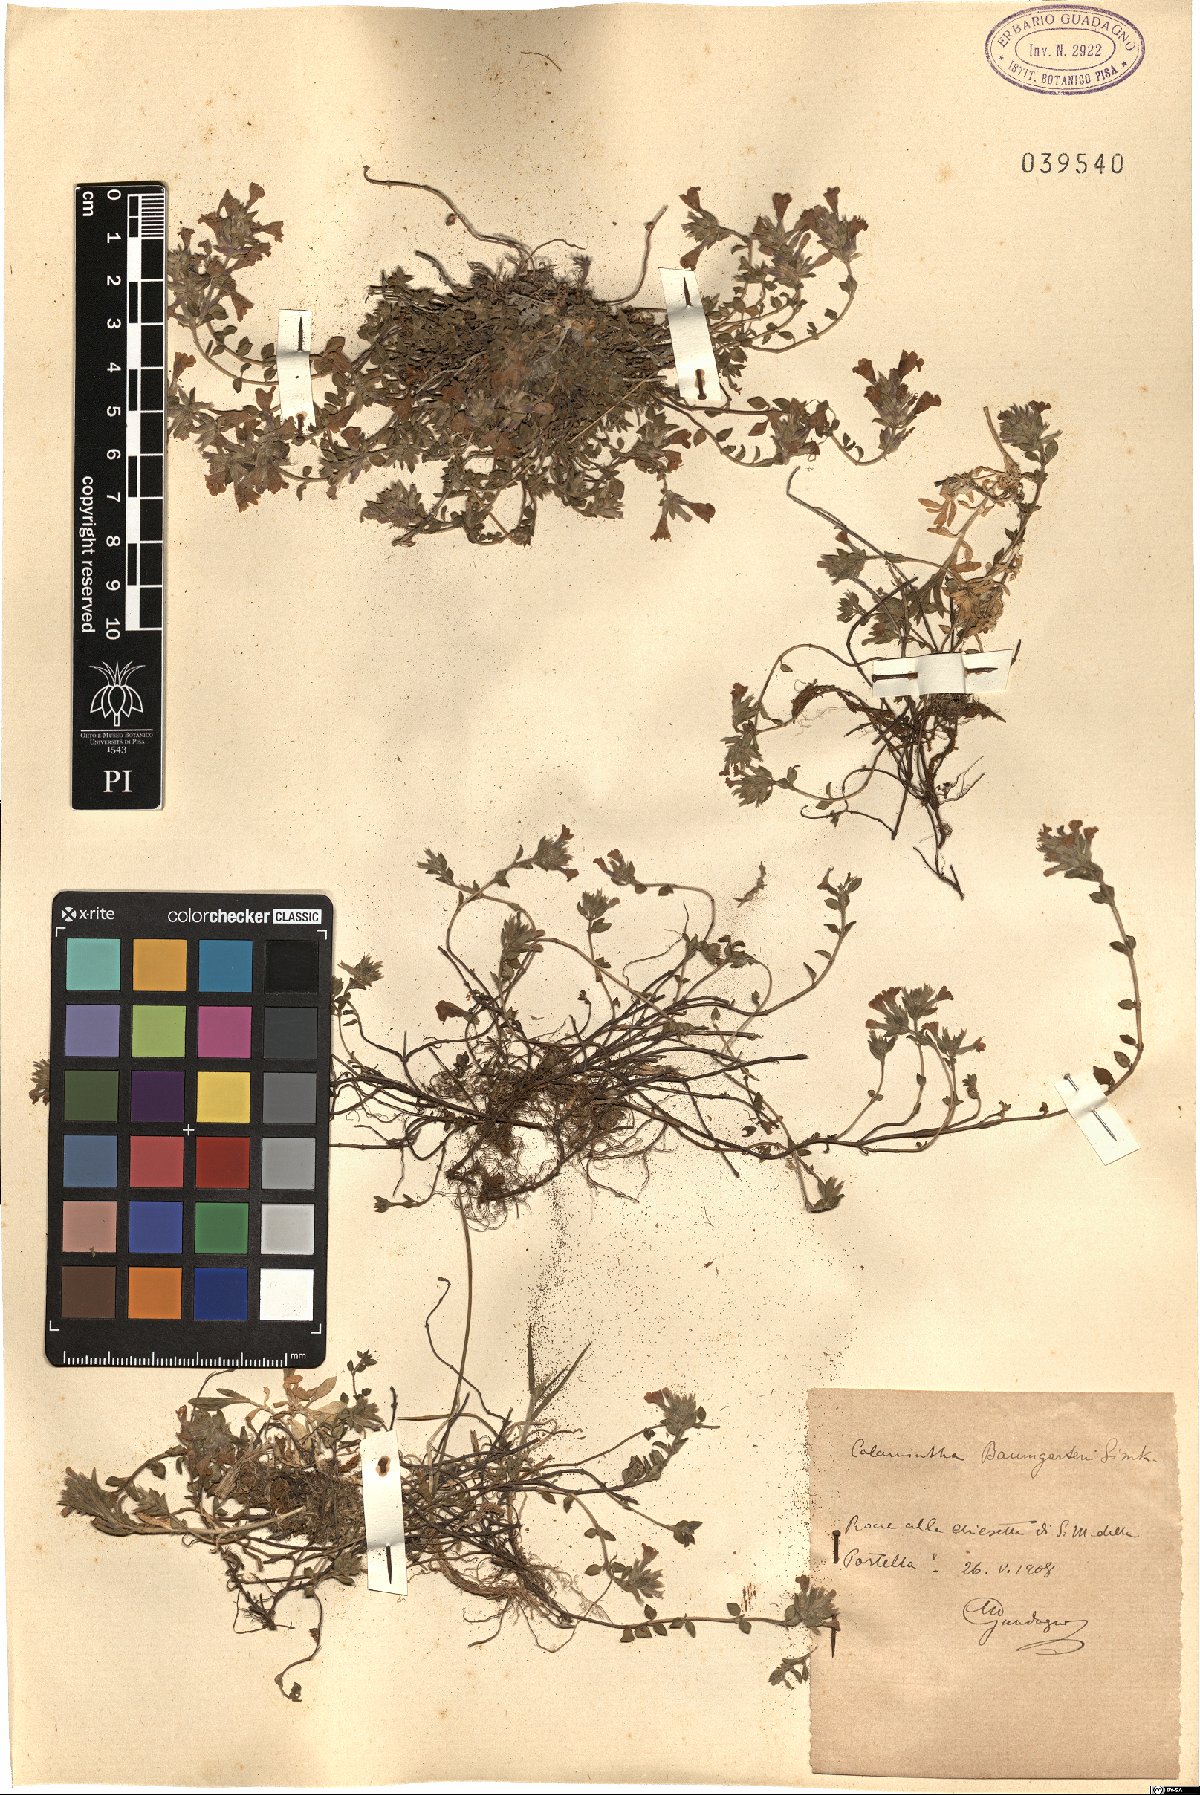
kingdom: Plantae
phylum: Tracheophyta
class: Magnoliopsida
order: Lamiales
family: Lamiaceae
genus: Clinopodium
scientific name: Clinopodium alpinum
